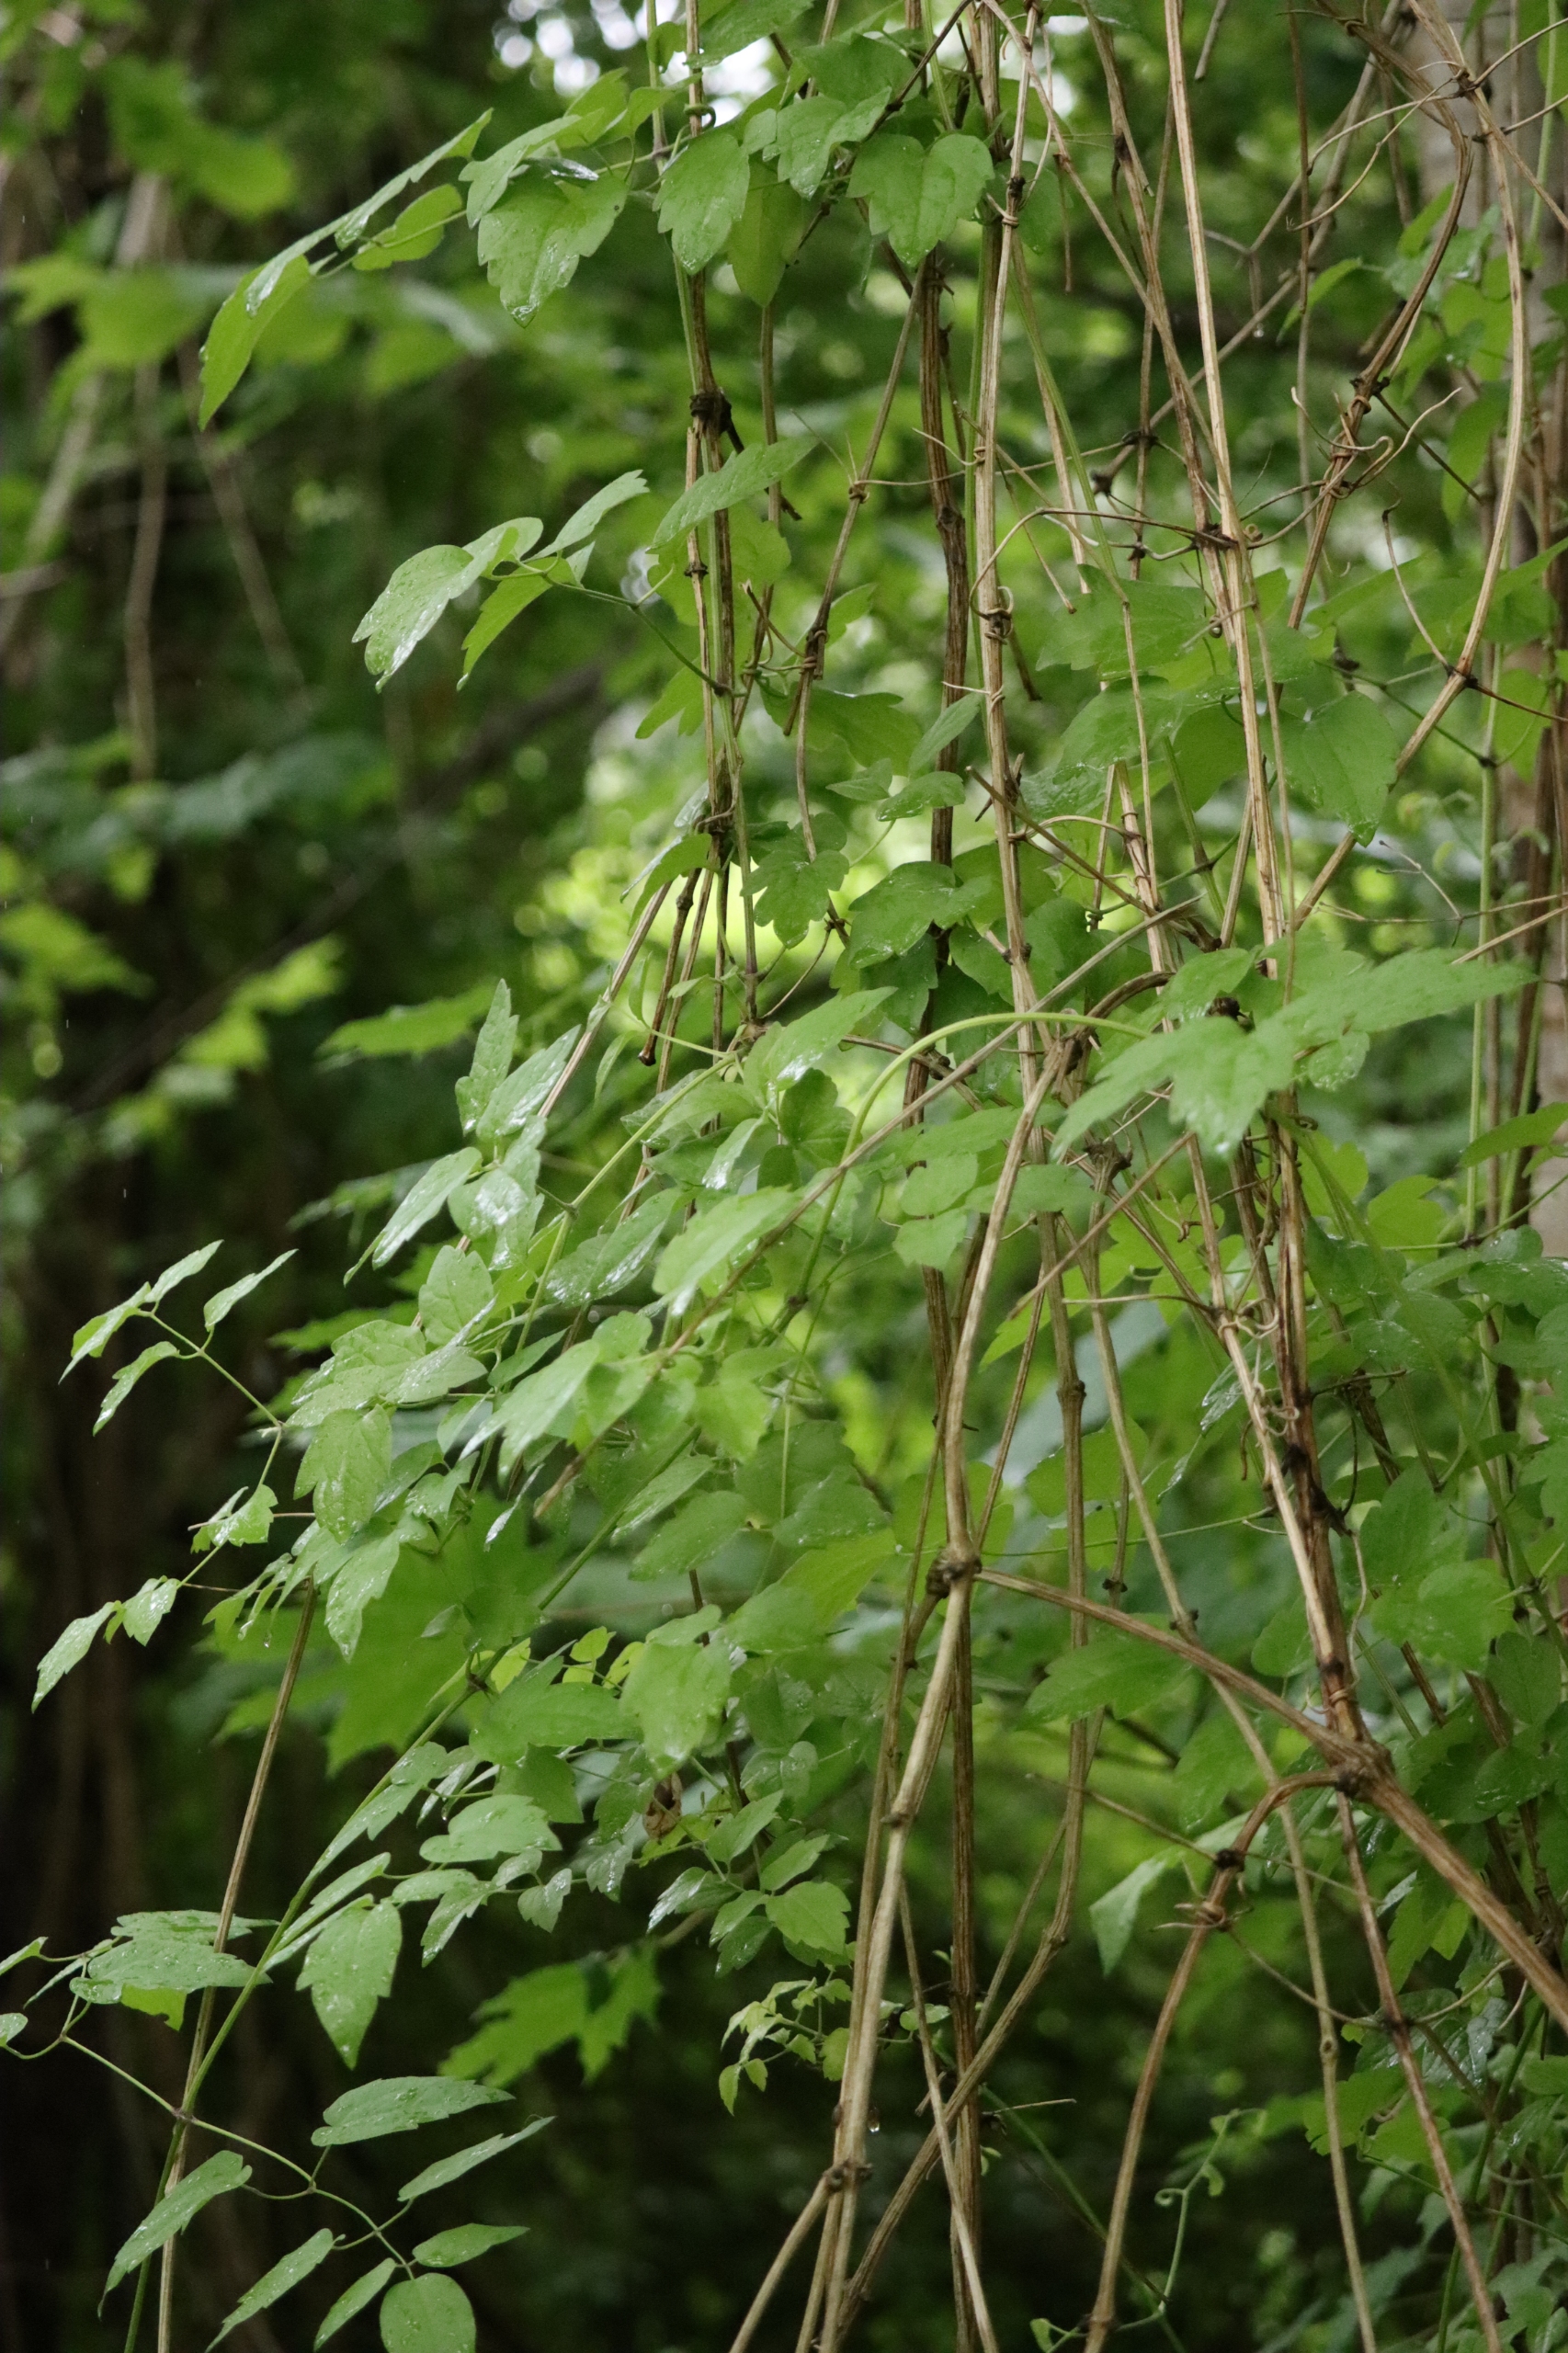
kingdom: Plantae
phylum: Tracheophyta
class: Magnoliopsida
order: Ranunculales
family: Ranunculaceae
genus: Clematis
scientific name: Clematis vitalba
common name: Skovranke
